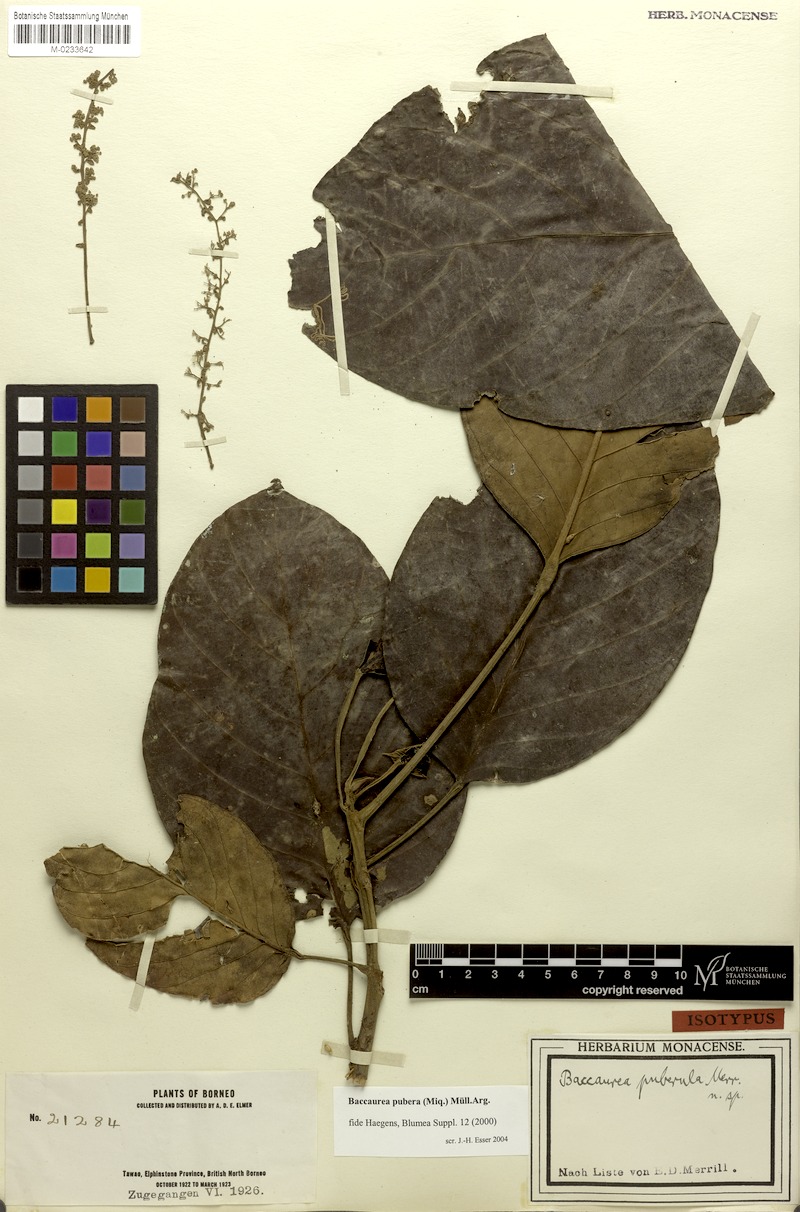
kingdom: Plantae
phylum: Tracheophyta
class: Magnoliopsida
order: Malpighiales
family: Phyllanthaceae
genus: Baccaurea
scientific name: Baccaurea pubera
